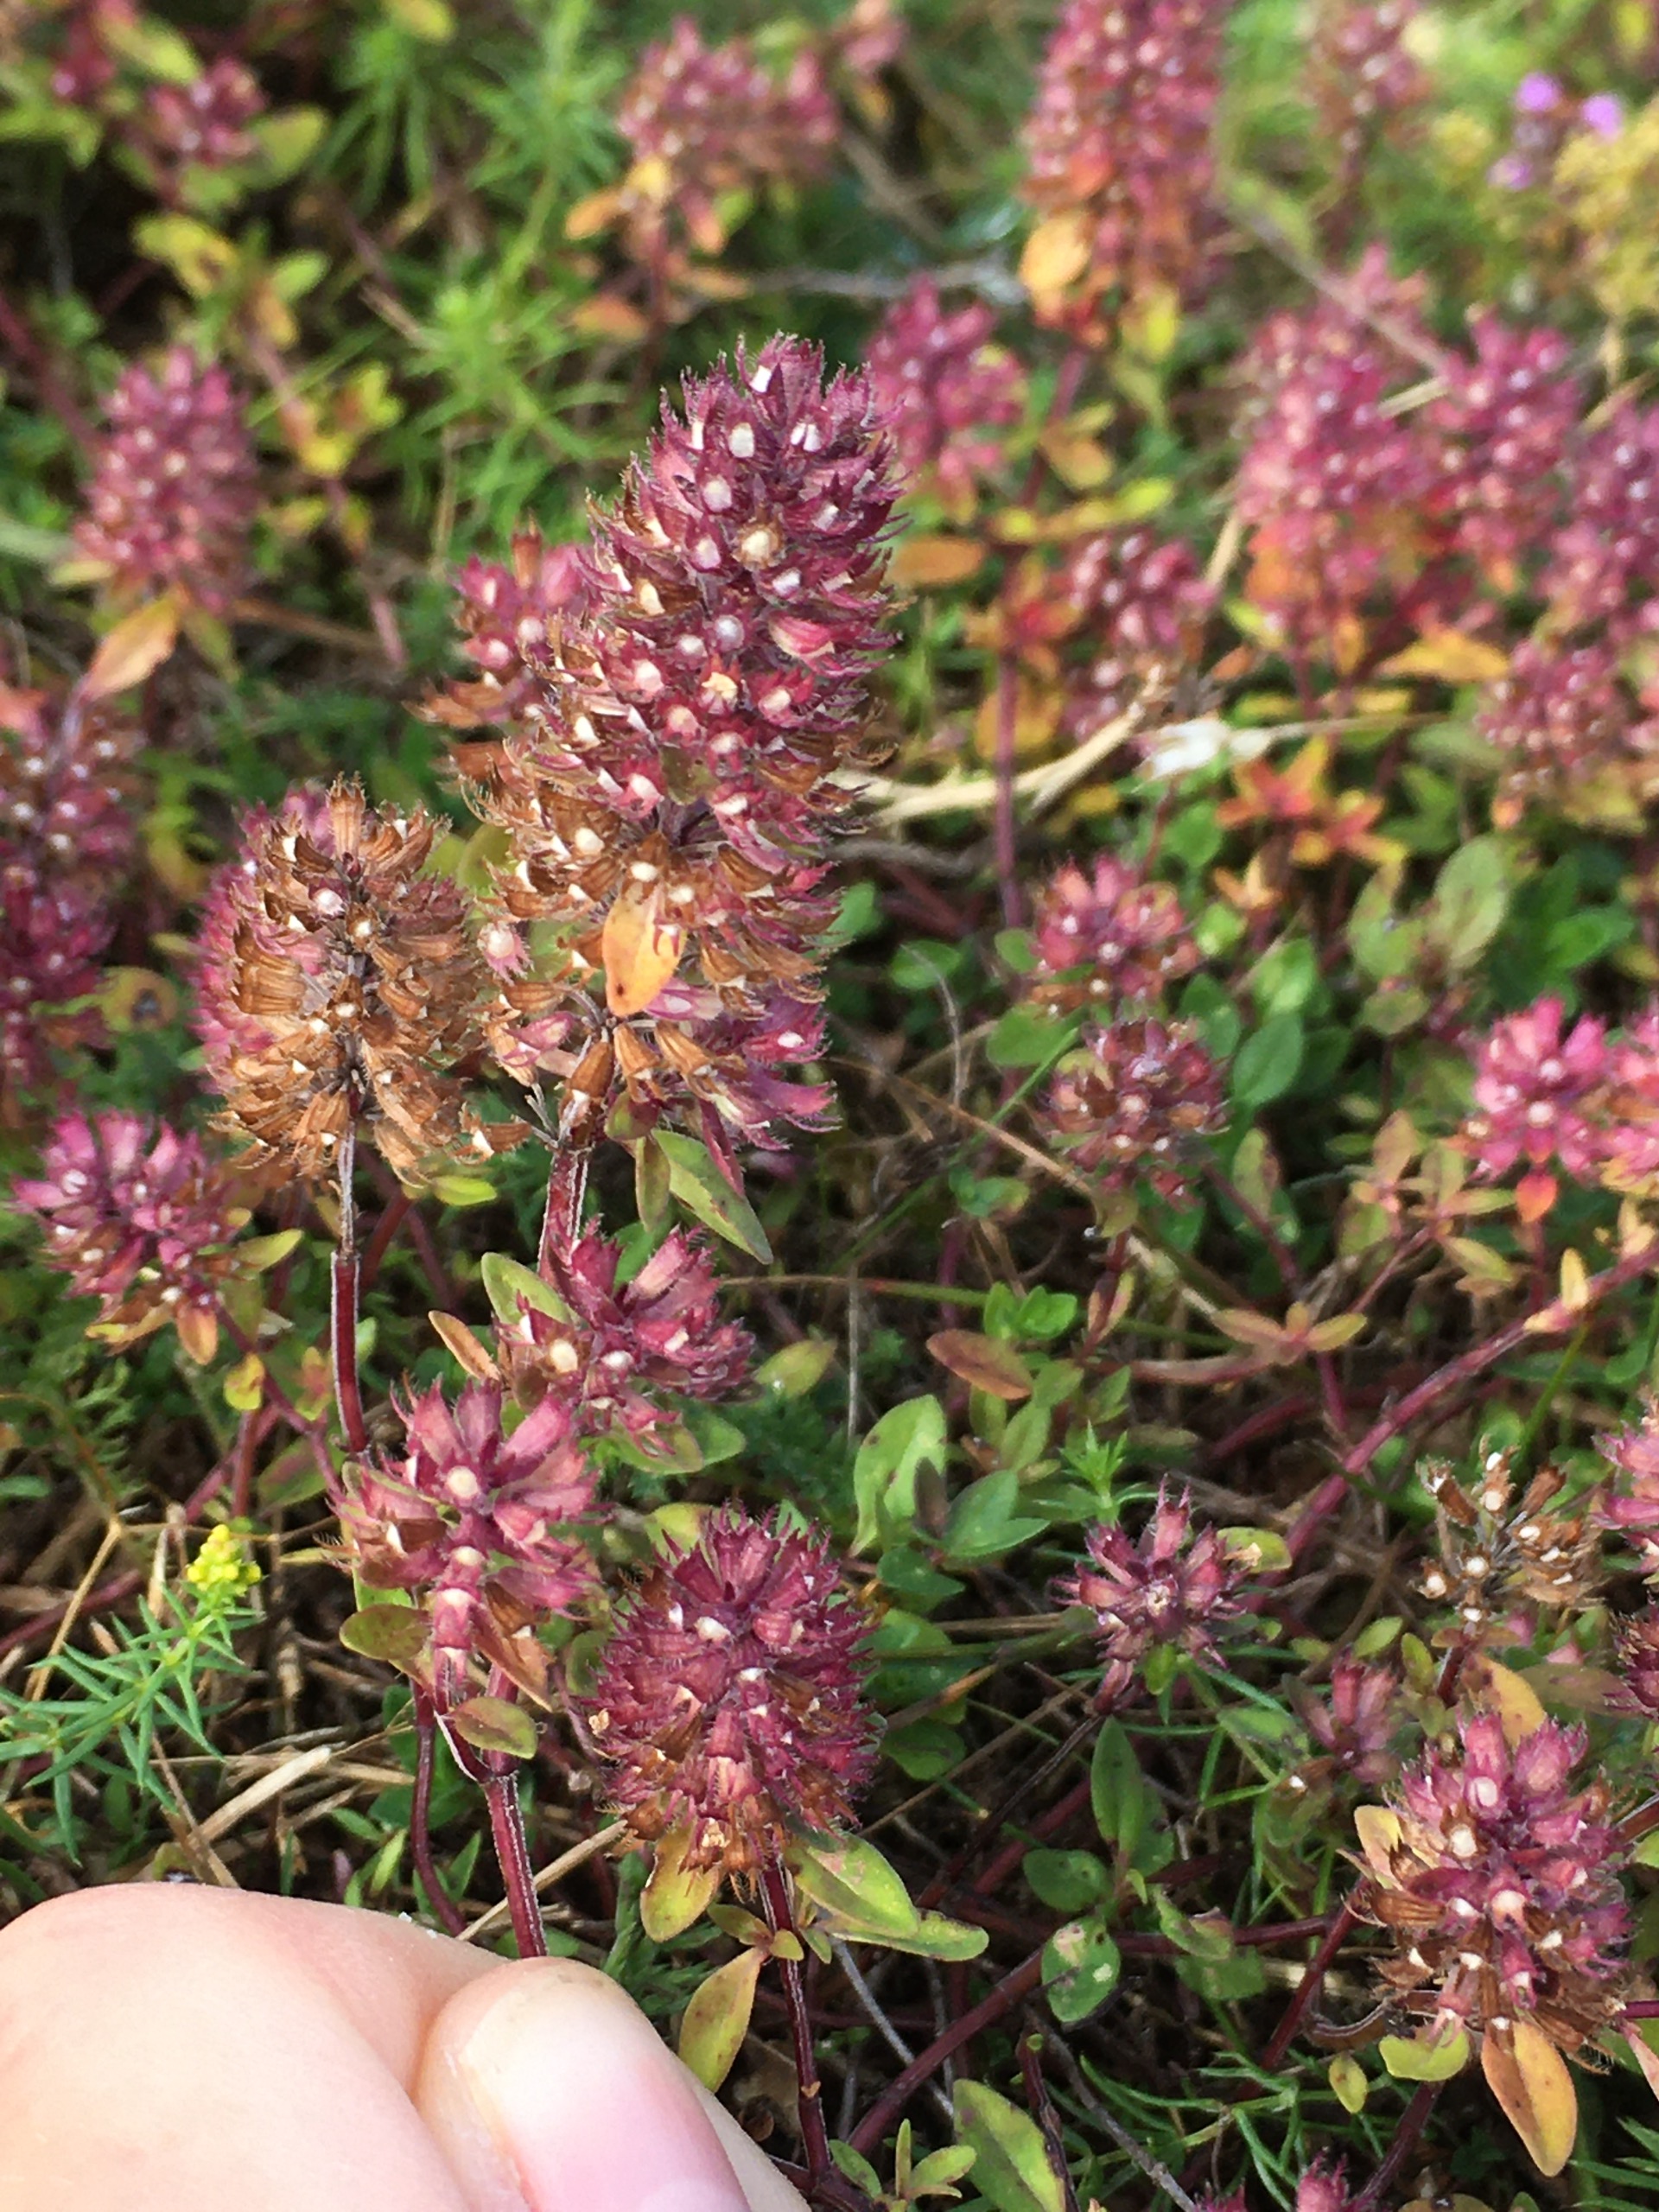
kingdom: Plantae
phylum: Tracheophyta
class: Magnoliopsida
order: Lamiales
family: Lamiaceae
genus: Thymus
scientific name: Thymus pulegioides
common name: Bredbladet timian
